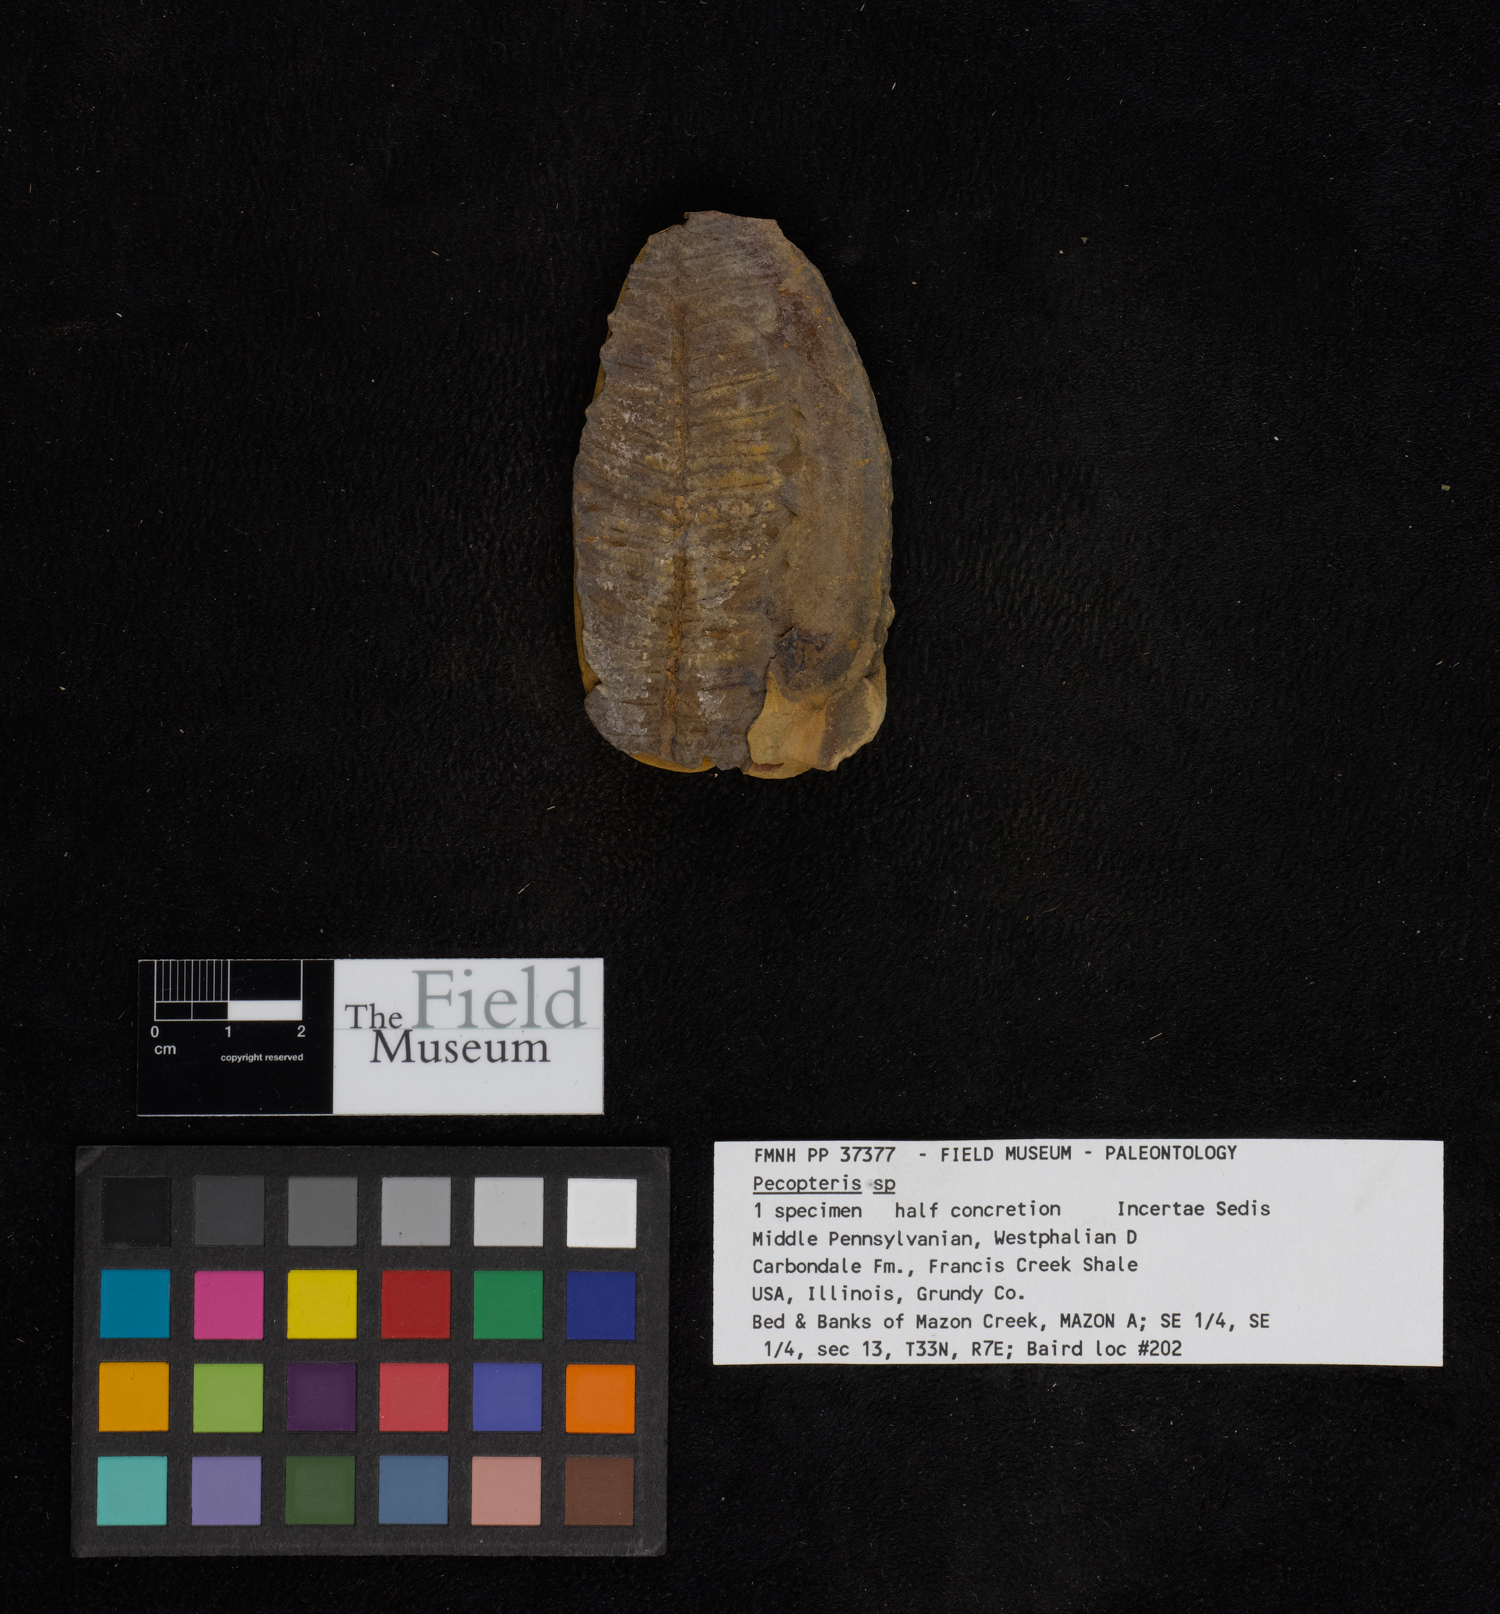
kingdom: Plantae
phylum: Tracheophyta
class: Polypodiopsida
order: Marattiales
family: Asterothecaceae
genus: Pecopteris
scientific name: Pecopteris
